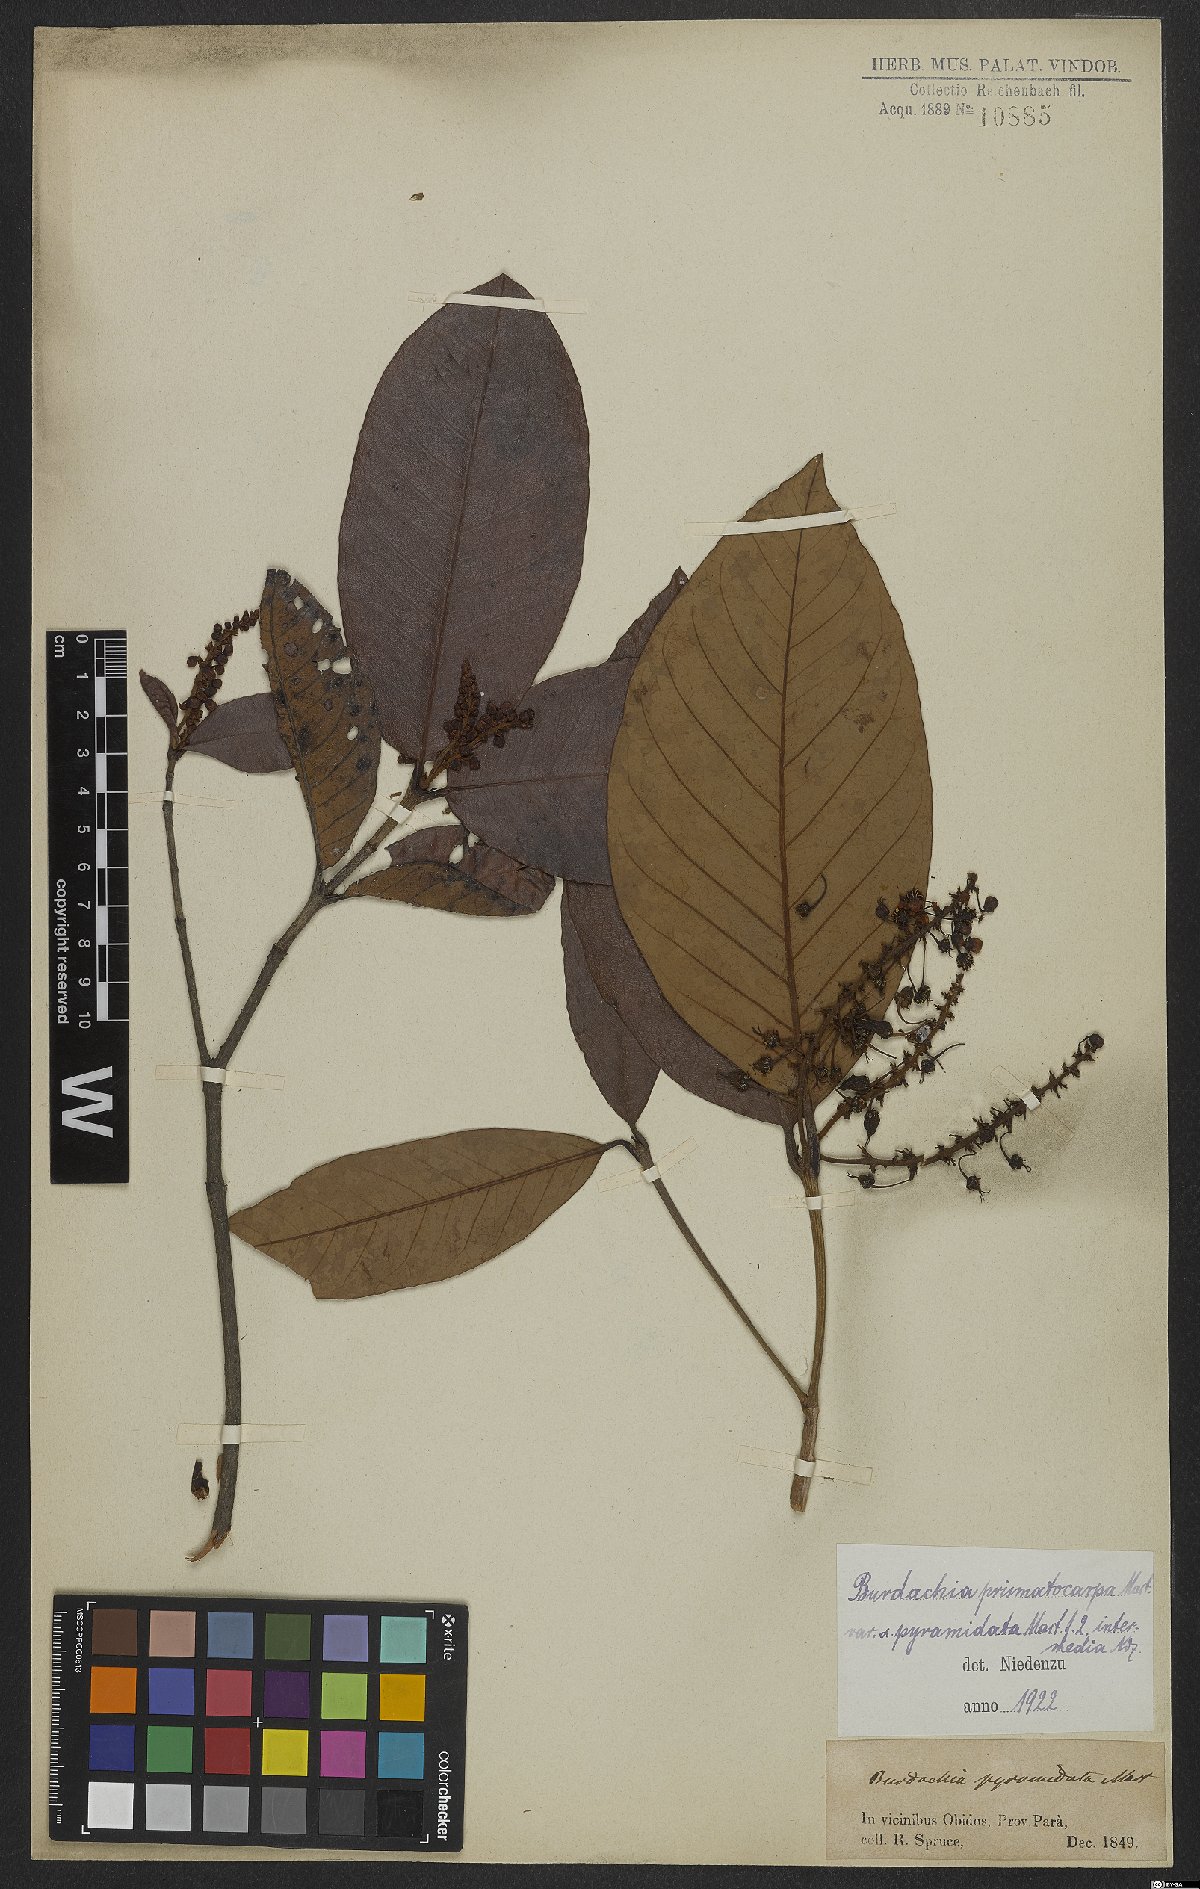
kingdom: Plantae
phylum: Tracheophyta
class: Magnoliopsida
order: Malpighiales
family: Malpighiaceae
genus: Burdachia
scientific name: Burdachia prismatocarpa
